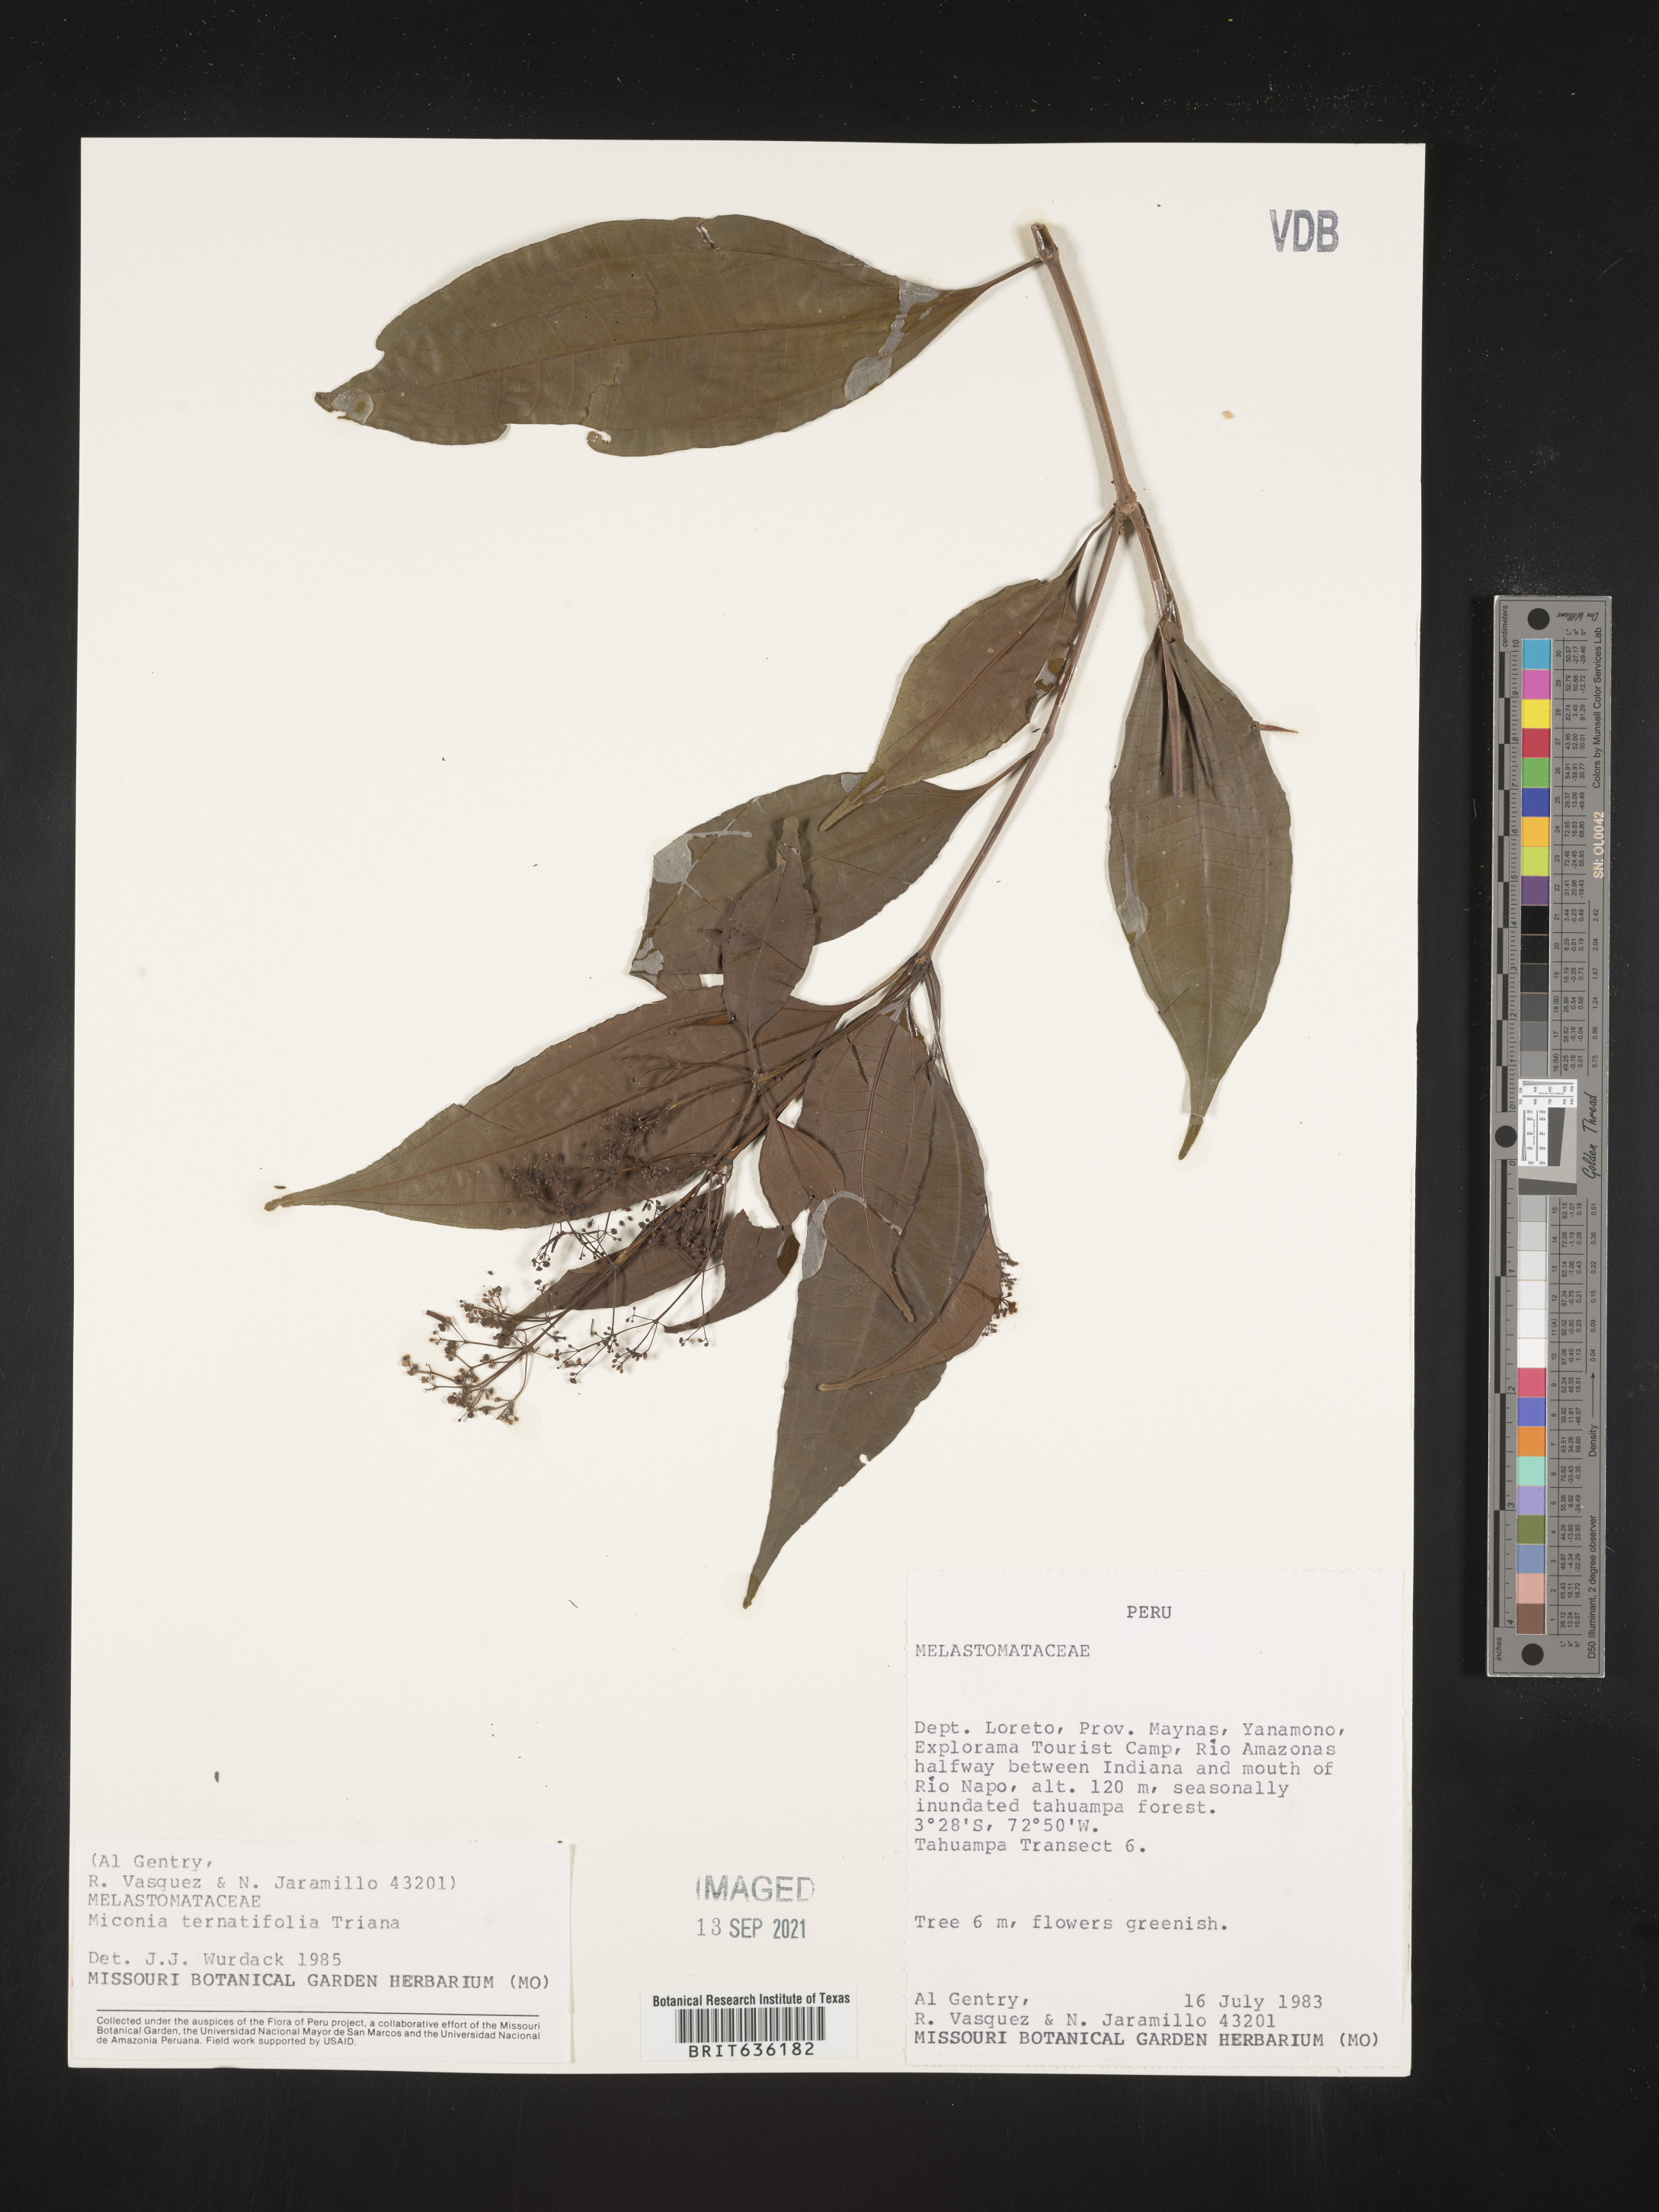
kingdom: Plantae
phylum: Tracheophyta
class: Magnoliopsida
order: Myrtales
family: Melastomataceae
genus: Miconia
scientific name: Miconia
